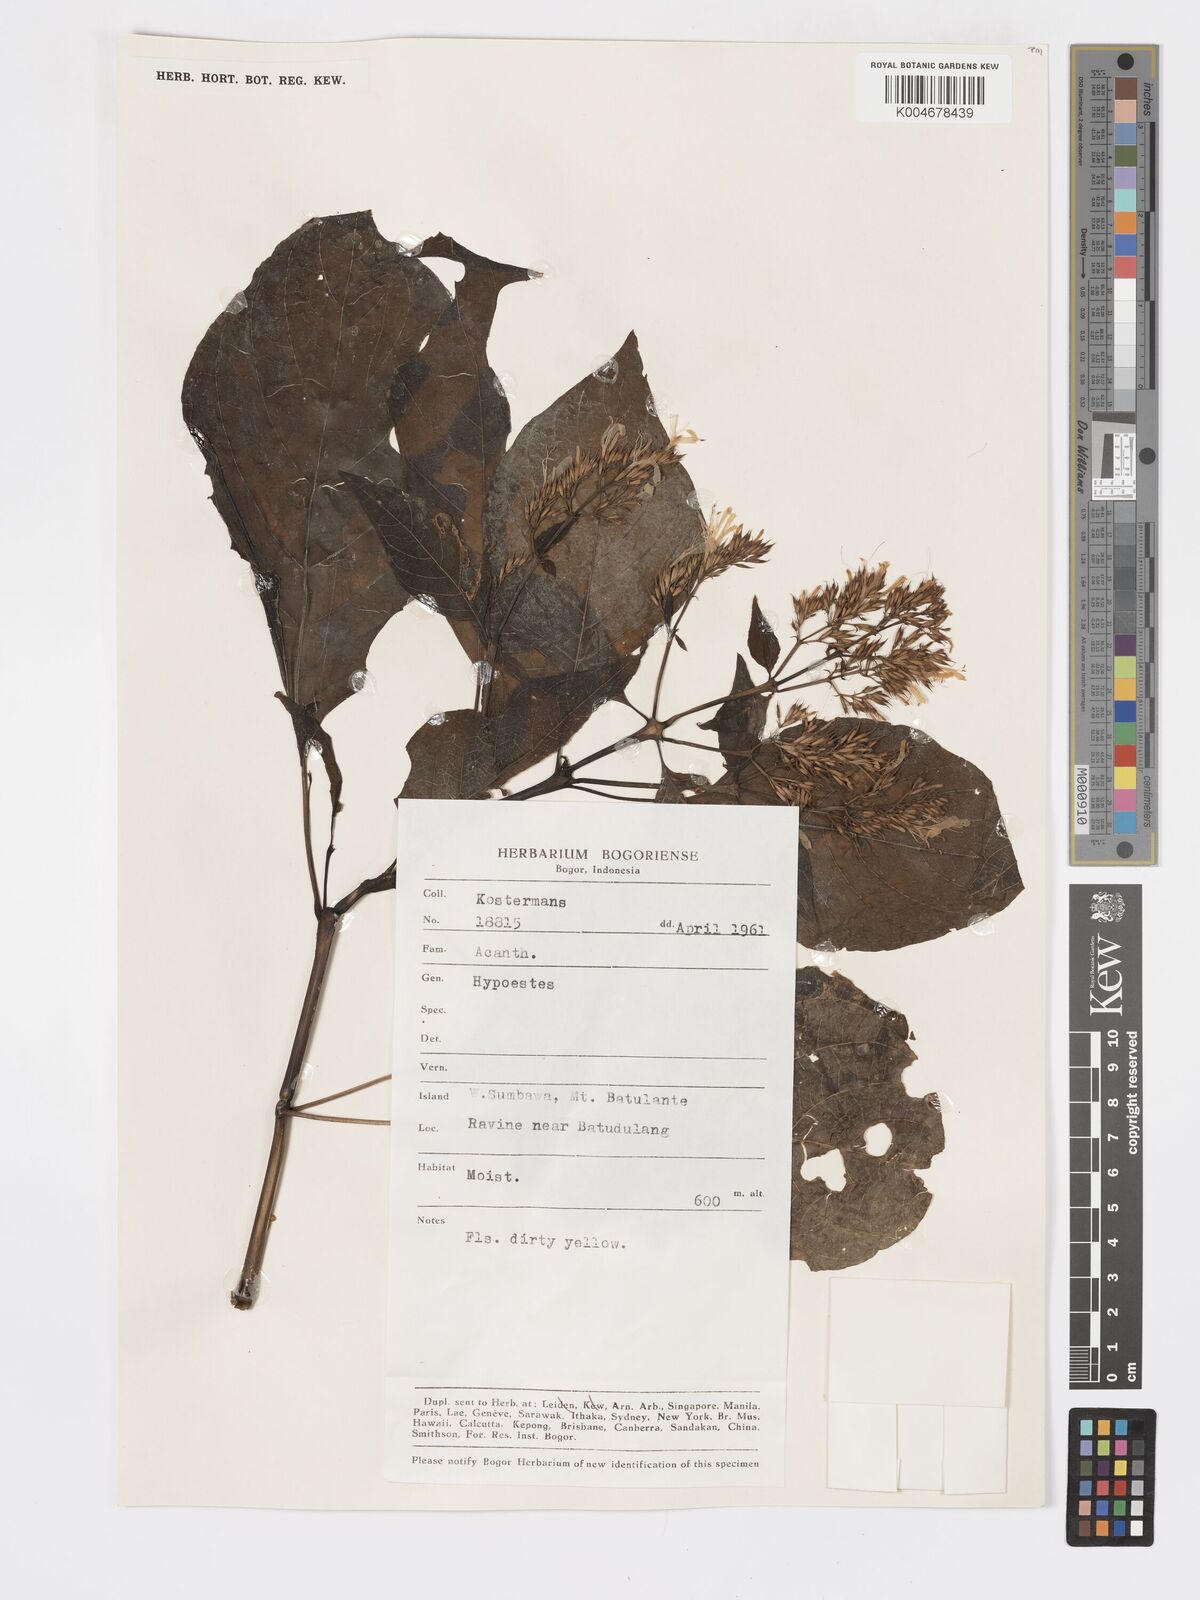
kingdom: Plantae
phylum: Tracheophyta
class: Magnoliopsida
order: Lamiales
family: Acanthaceae
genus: Hypoestes
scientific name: Hypoestes
